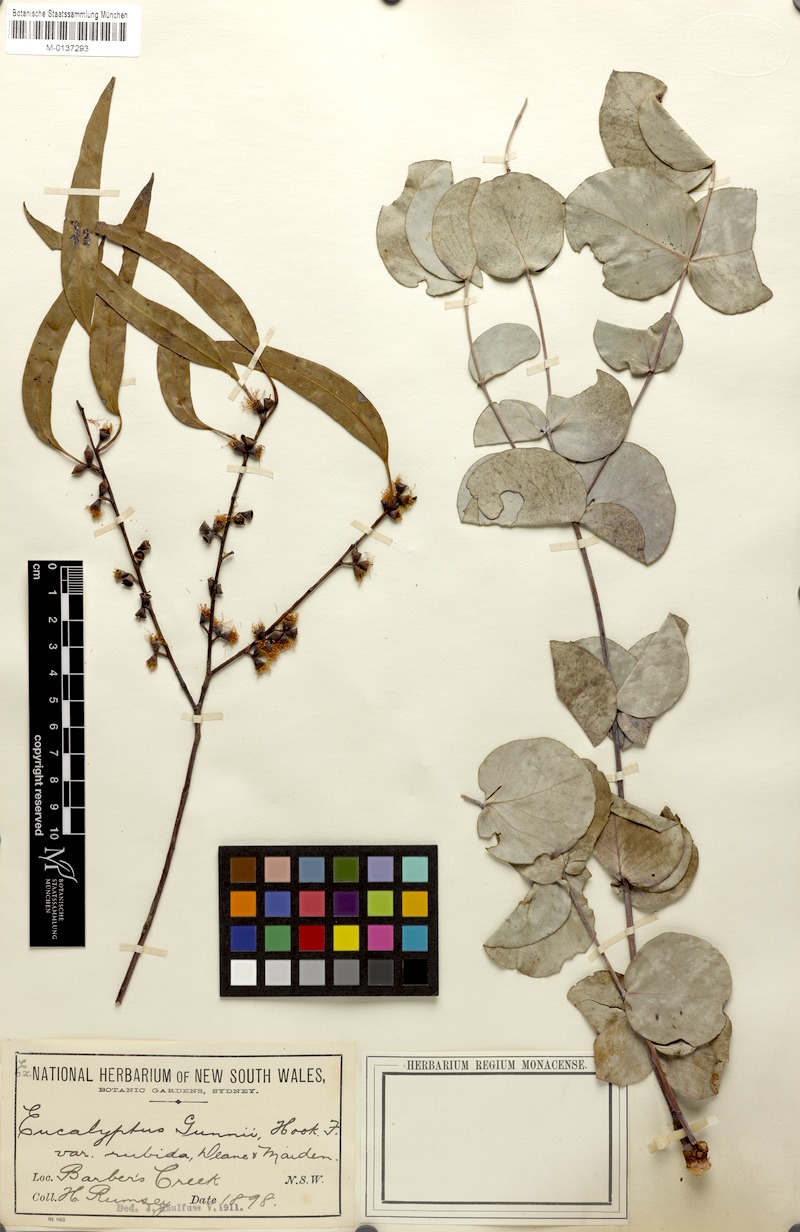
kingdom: Plantae
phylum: Tracheophyta
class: Magnoliopsida
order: Myrtales
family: Myrtaceae
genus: Eucalyptus
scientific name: Eucalyptus rubida
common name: Candlebark
